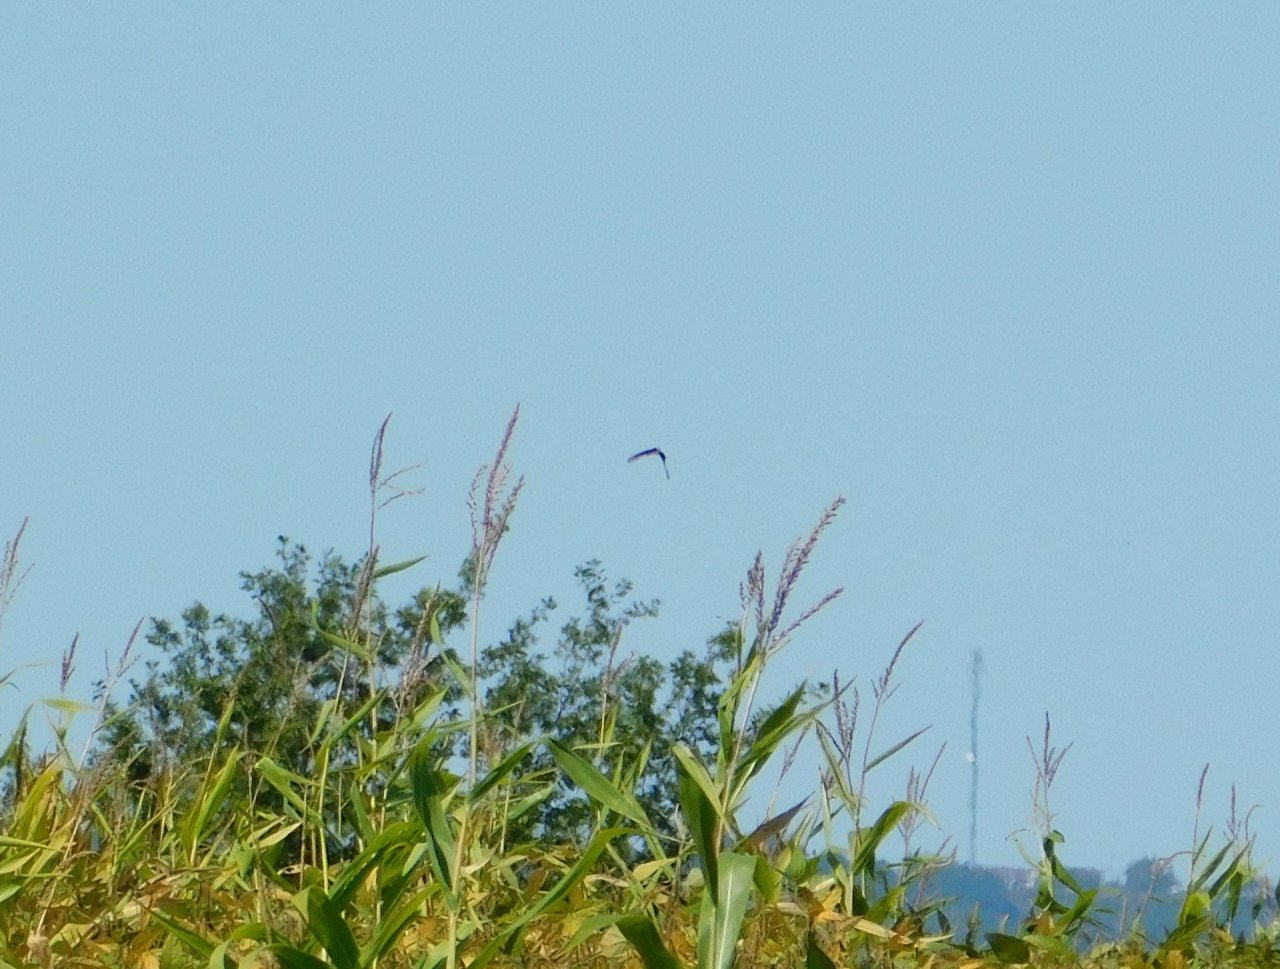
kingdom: Animalia
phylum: Arthropoda
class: Insecta
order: Lepidoptera
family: Papilionidae
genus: Papilio
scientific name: Papilio polyxenes
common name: Black Swallowtail
